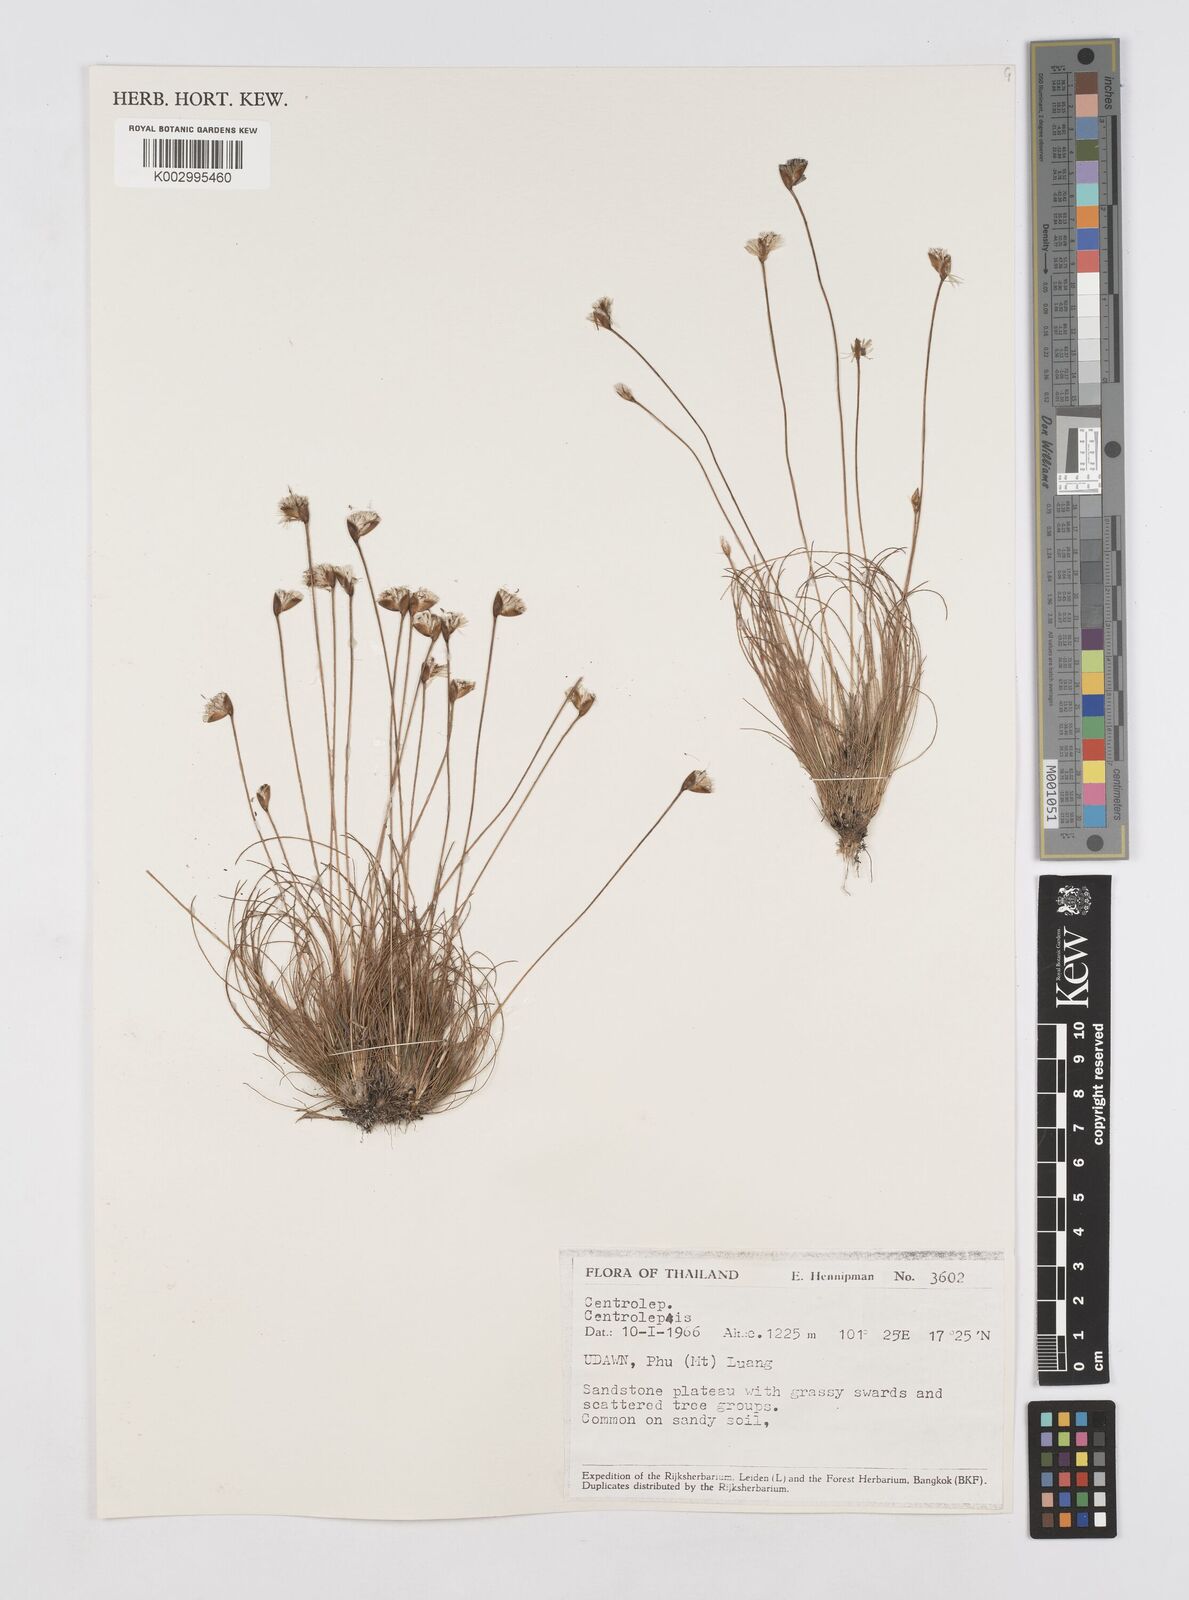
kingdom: Plantae
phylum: Tracheophyta
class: Liliopsida
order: Poales
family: Restionaceae
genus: Centrolepis
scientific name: Centrolepis cambodiana
